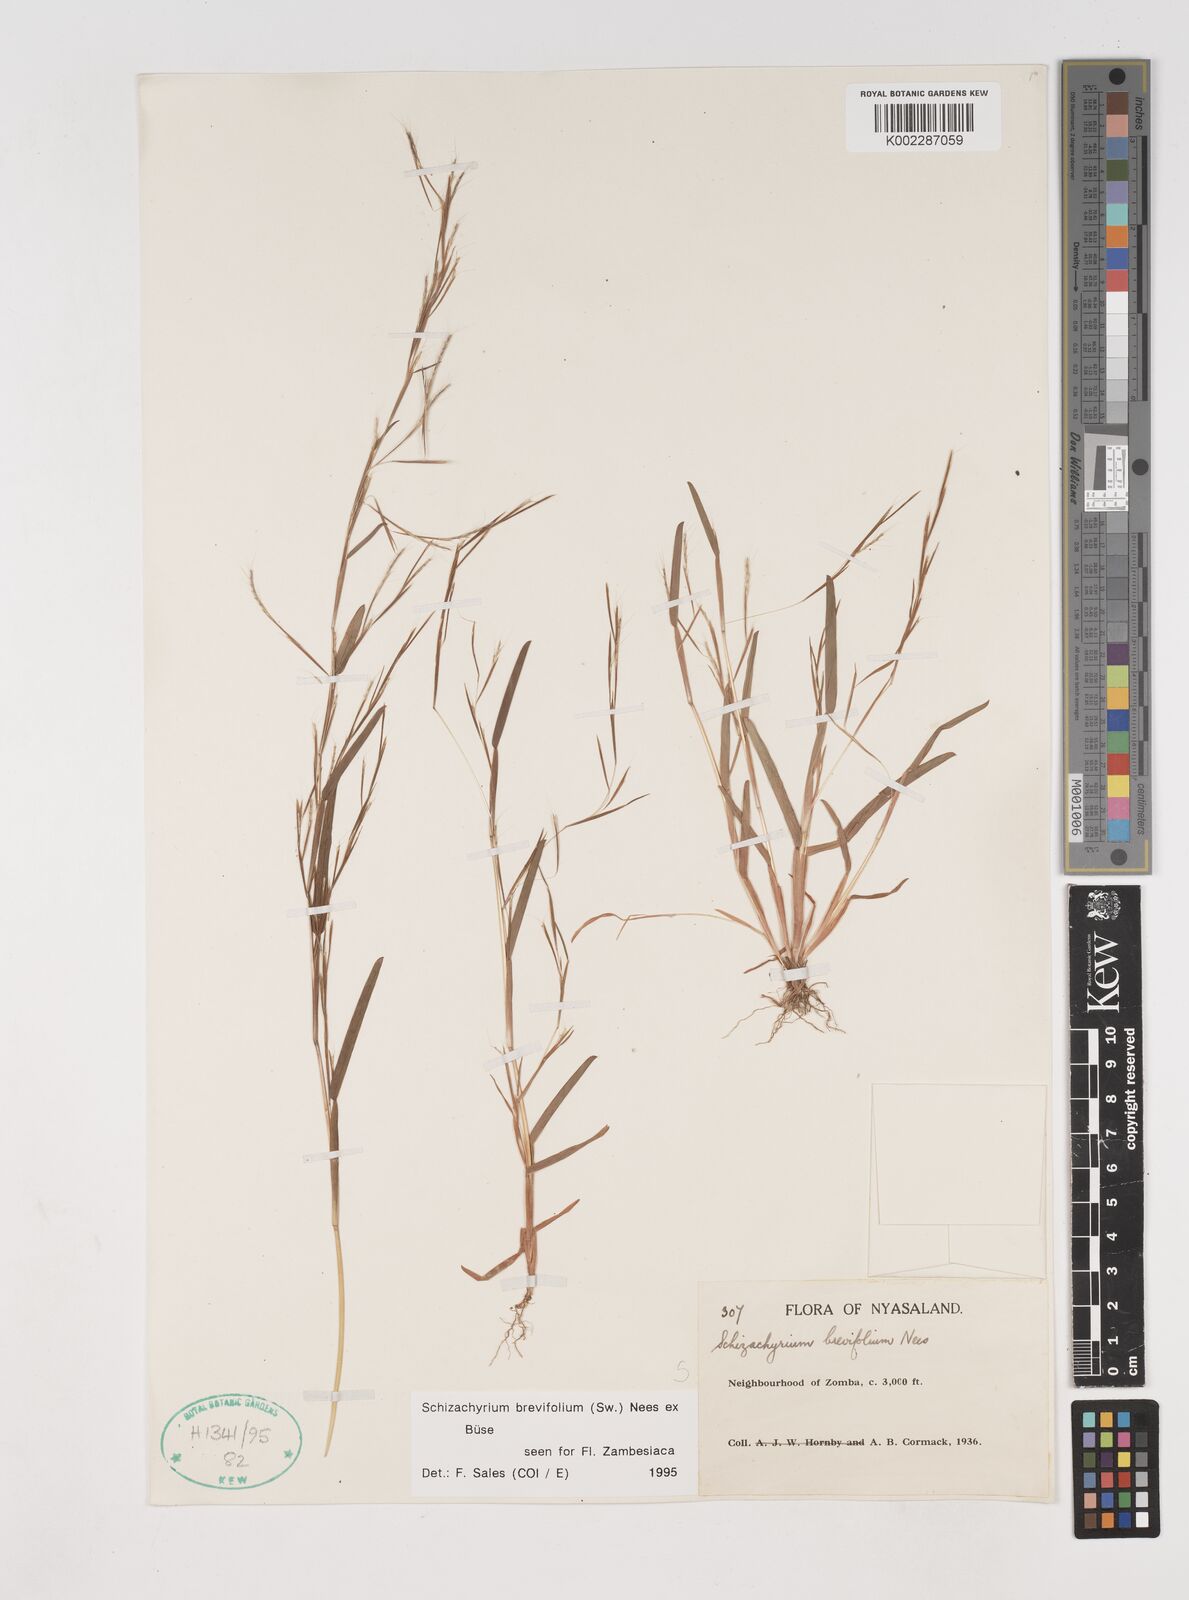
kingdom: Plantae
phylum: Tracheophyta
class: Liliopsida
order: Poales
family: Poaceae
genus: Schizachyrium
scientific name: Schizachyrium brevifolium
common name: Serillo dulce
